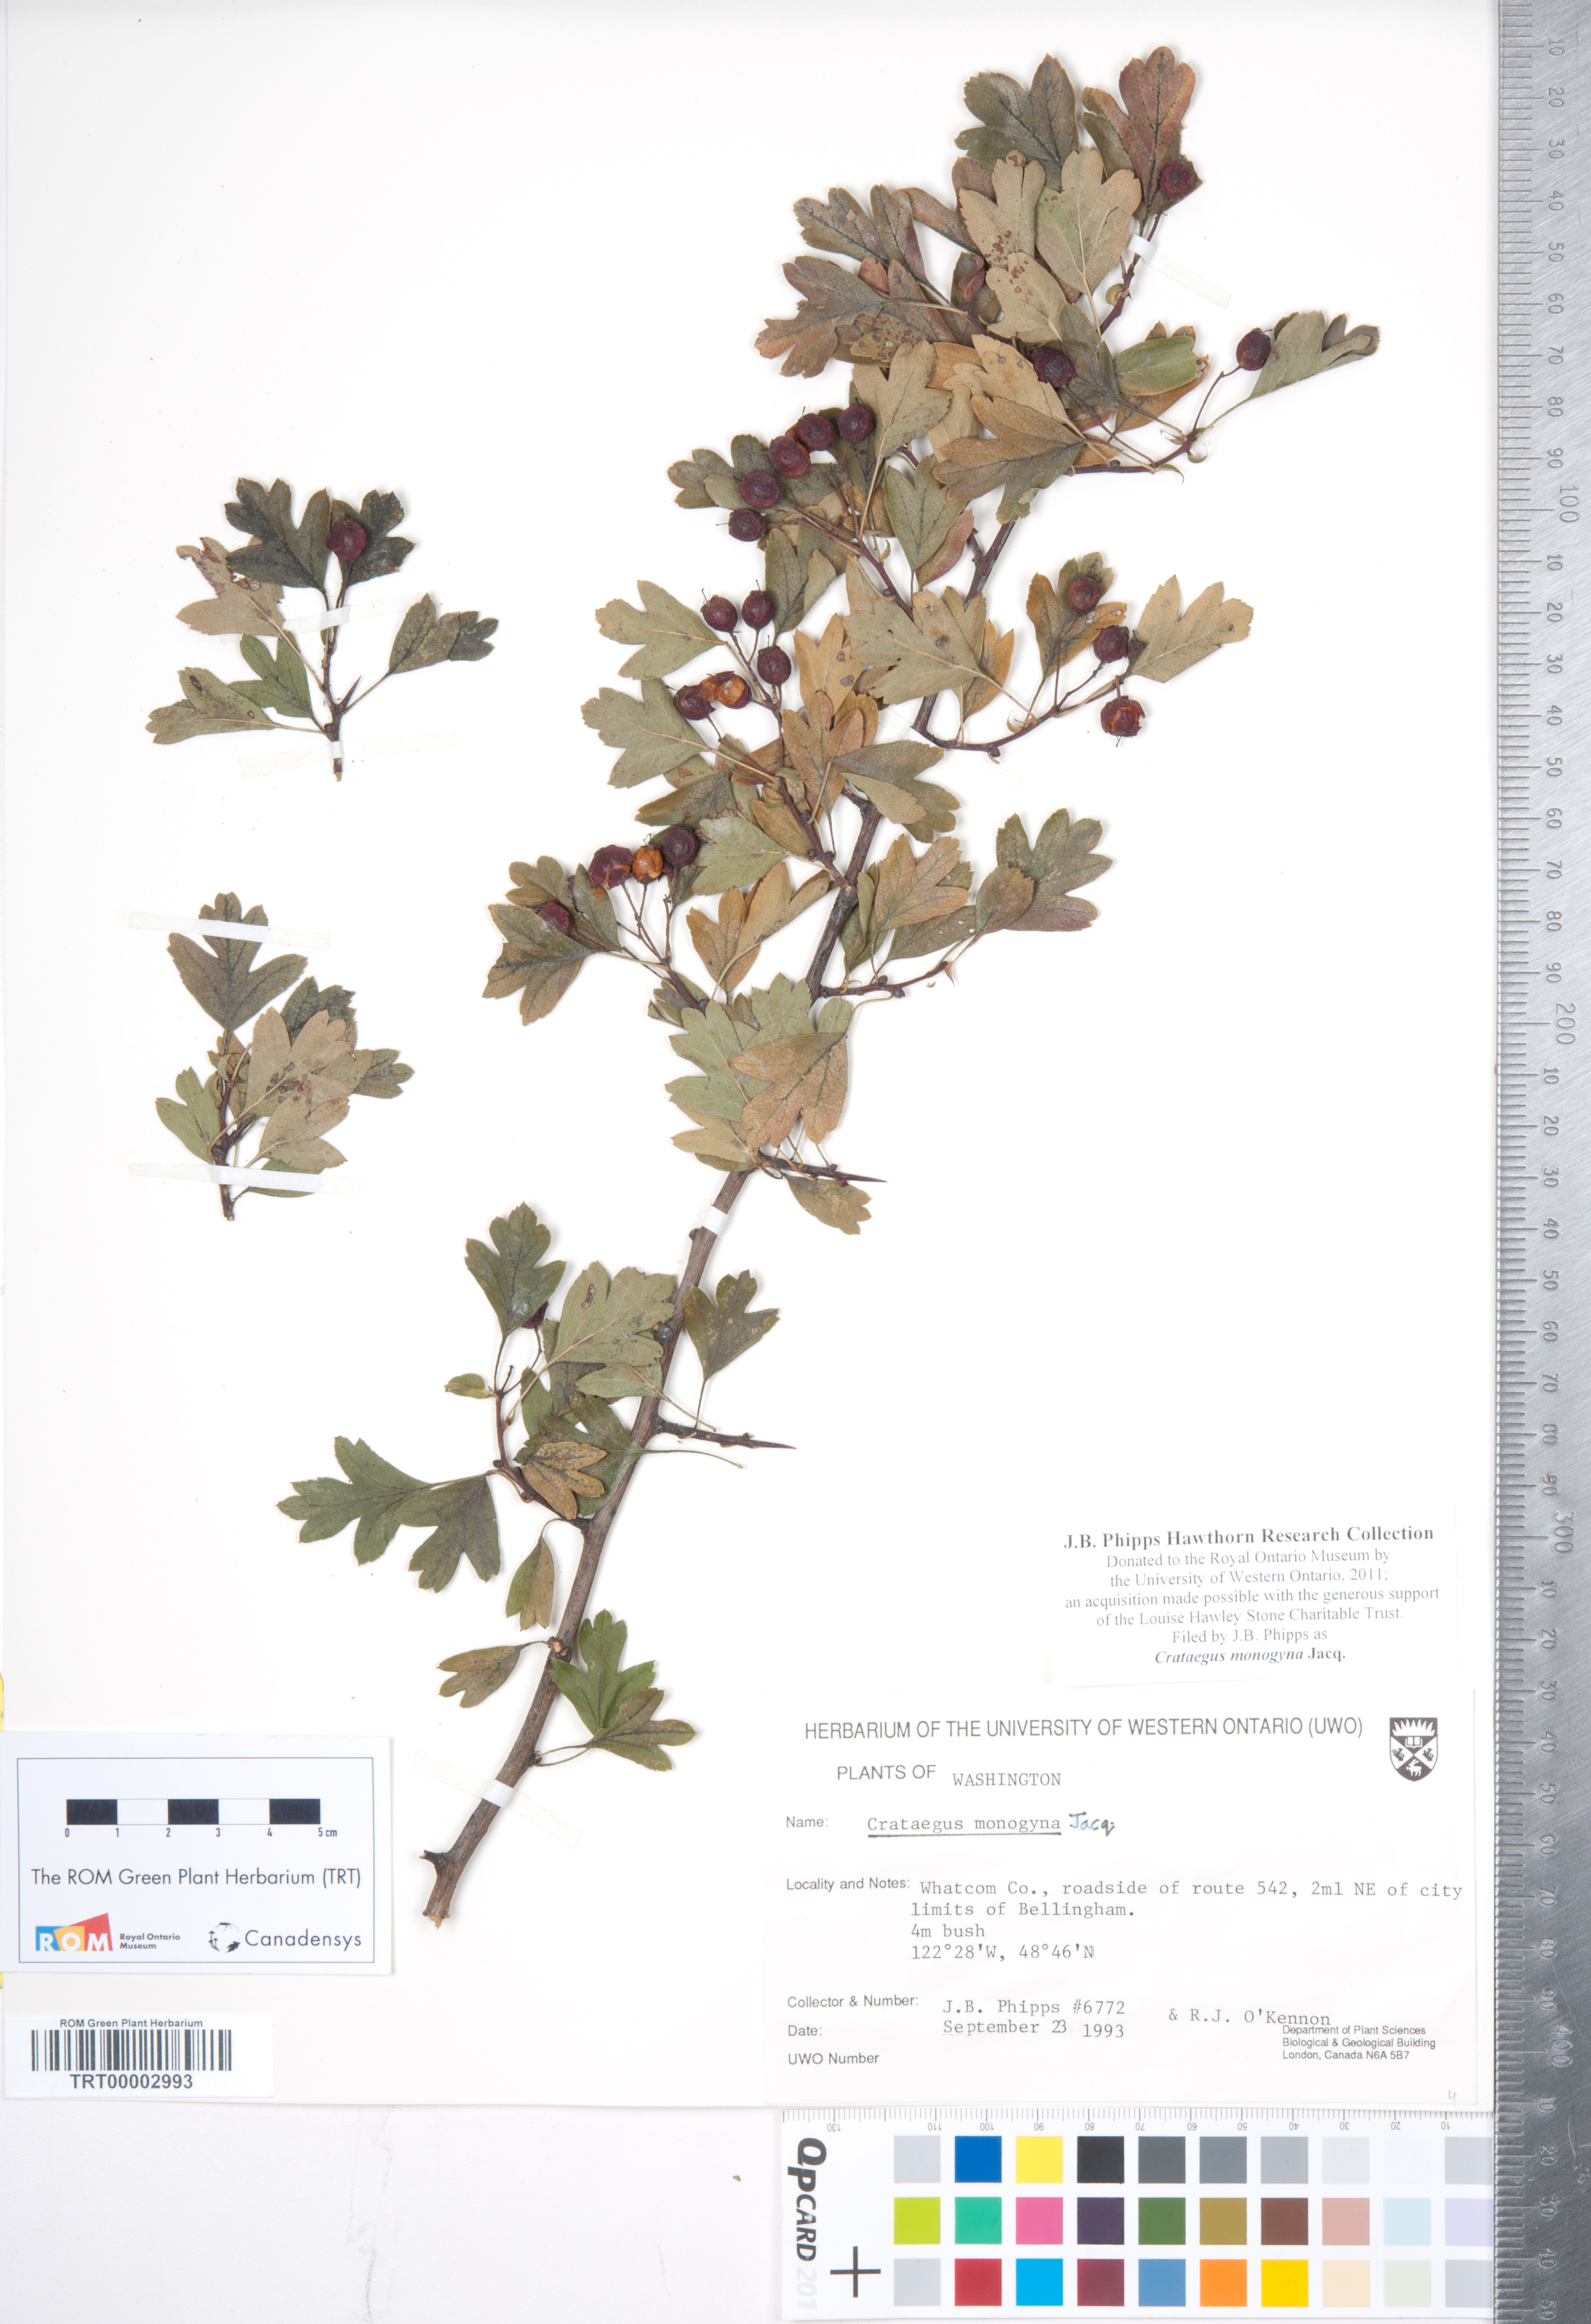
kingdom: Plantae
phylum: Tracheophyta
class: Magnoliopsida
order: Rosales
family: Rosaceae
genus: Crataegus
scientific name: Crataegus monogyna
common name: Hawthorn
